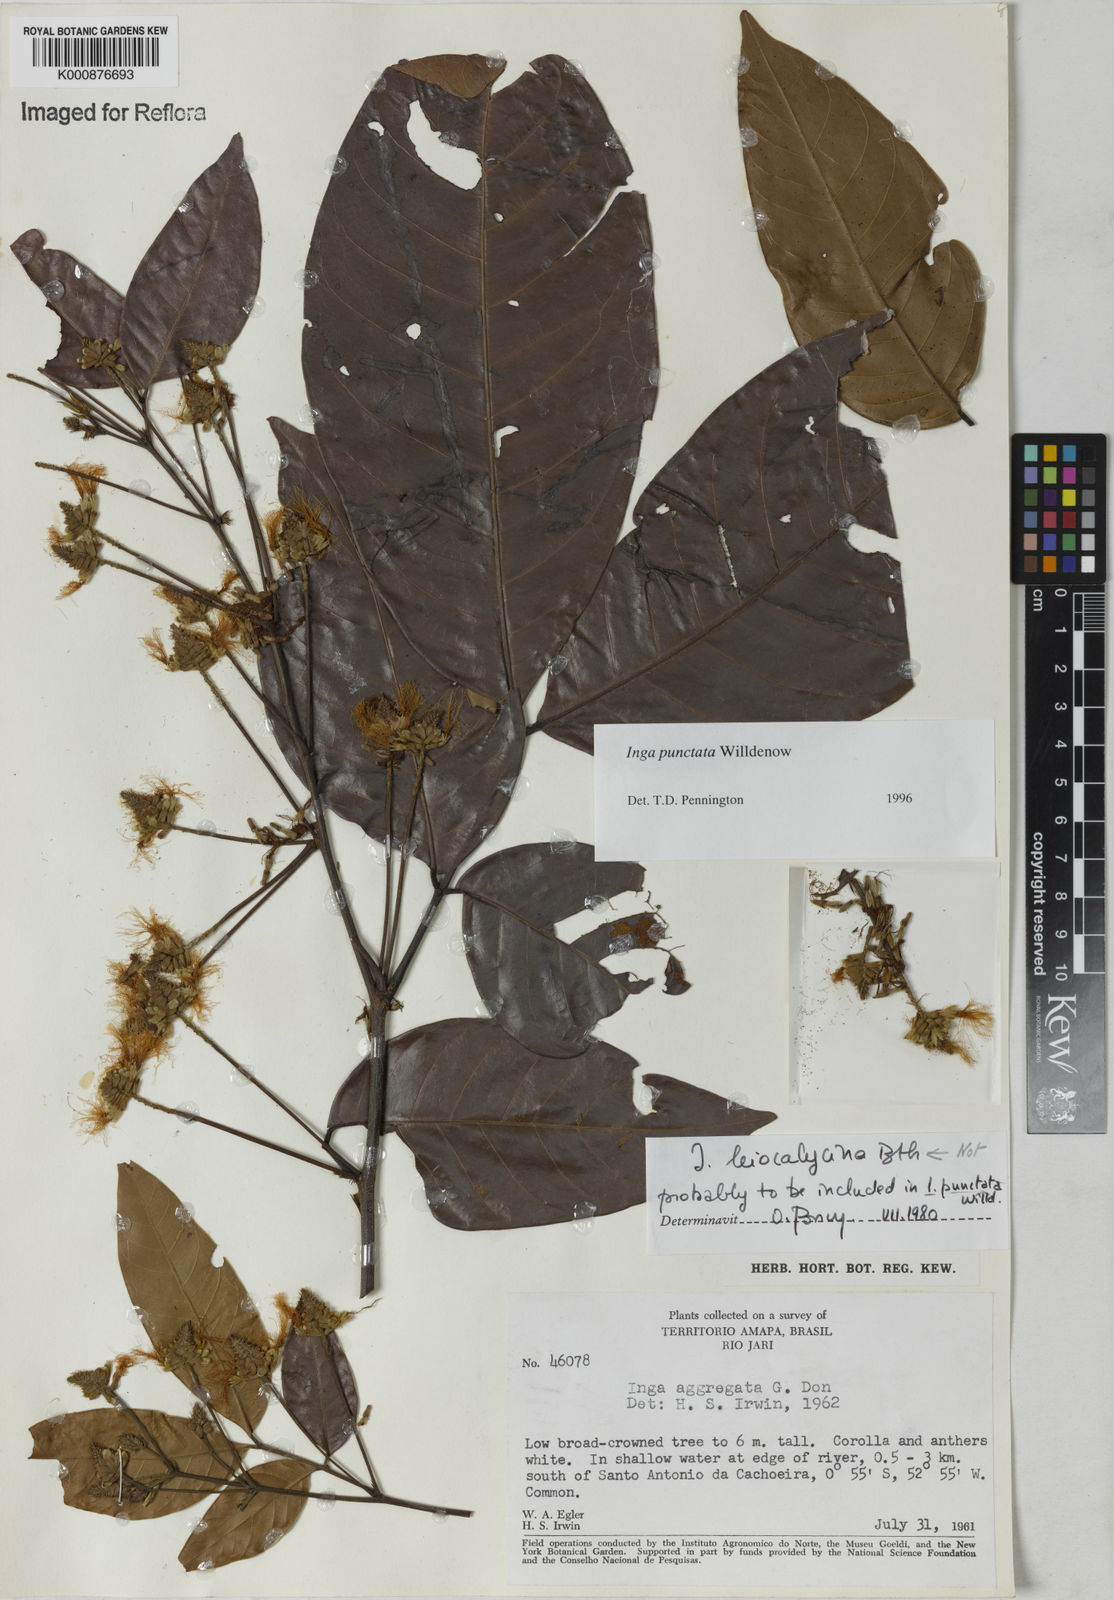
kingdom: Plantae
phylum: Tracheophyta
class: Magnoliopsida
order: Fabales
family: Fabaceae
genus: Inga
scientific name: Inga punctata
